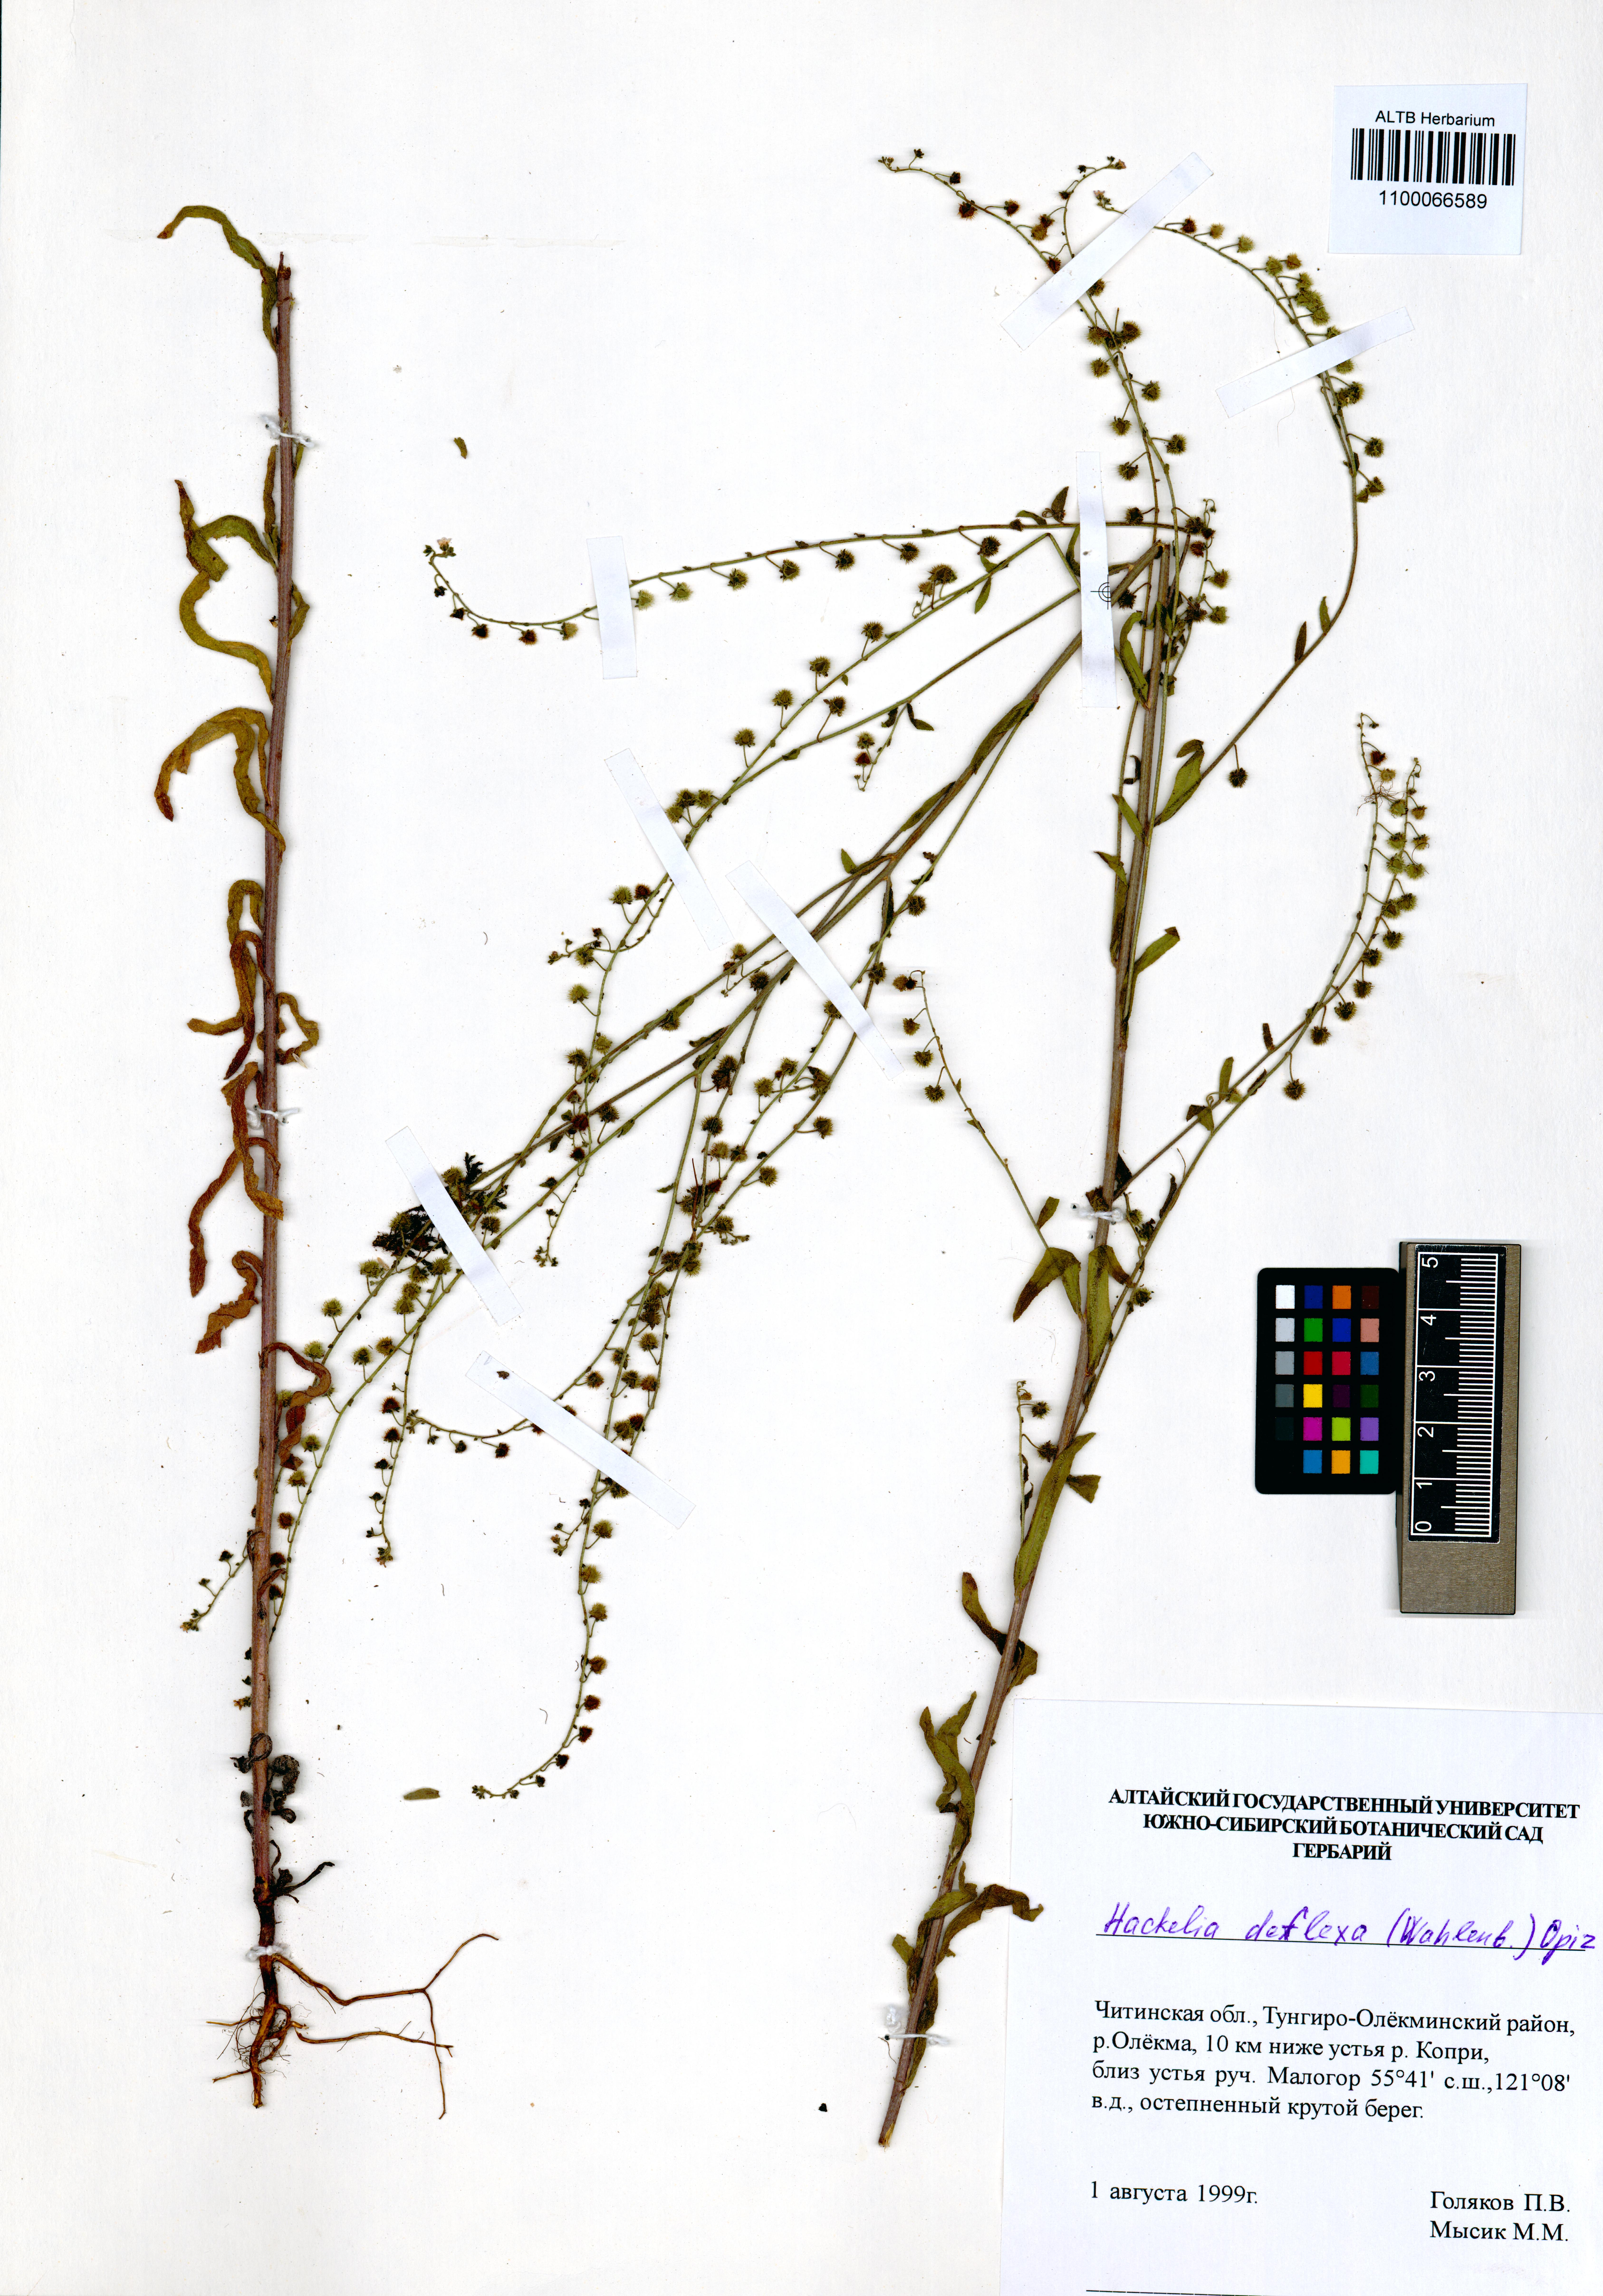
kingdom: Plantae
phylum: Tracheophyta
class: Magnoliopsida
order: Boraginales
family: Boraginaceae
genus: Hackelia
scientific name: Hackelia deflexa
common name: Nodding stickseed
